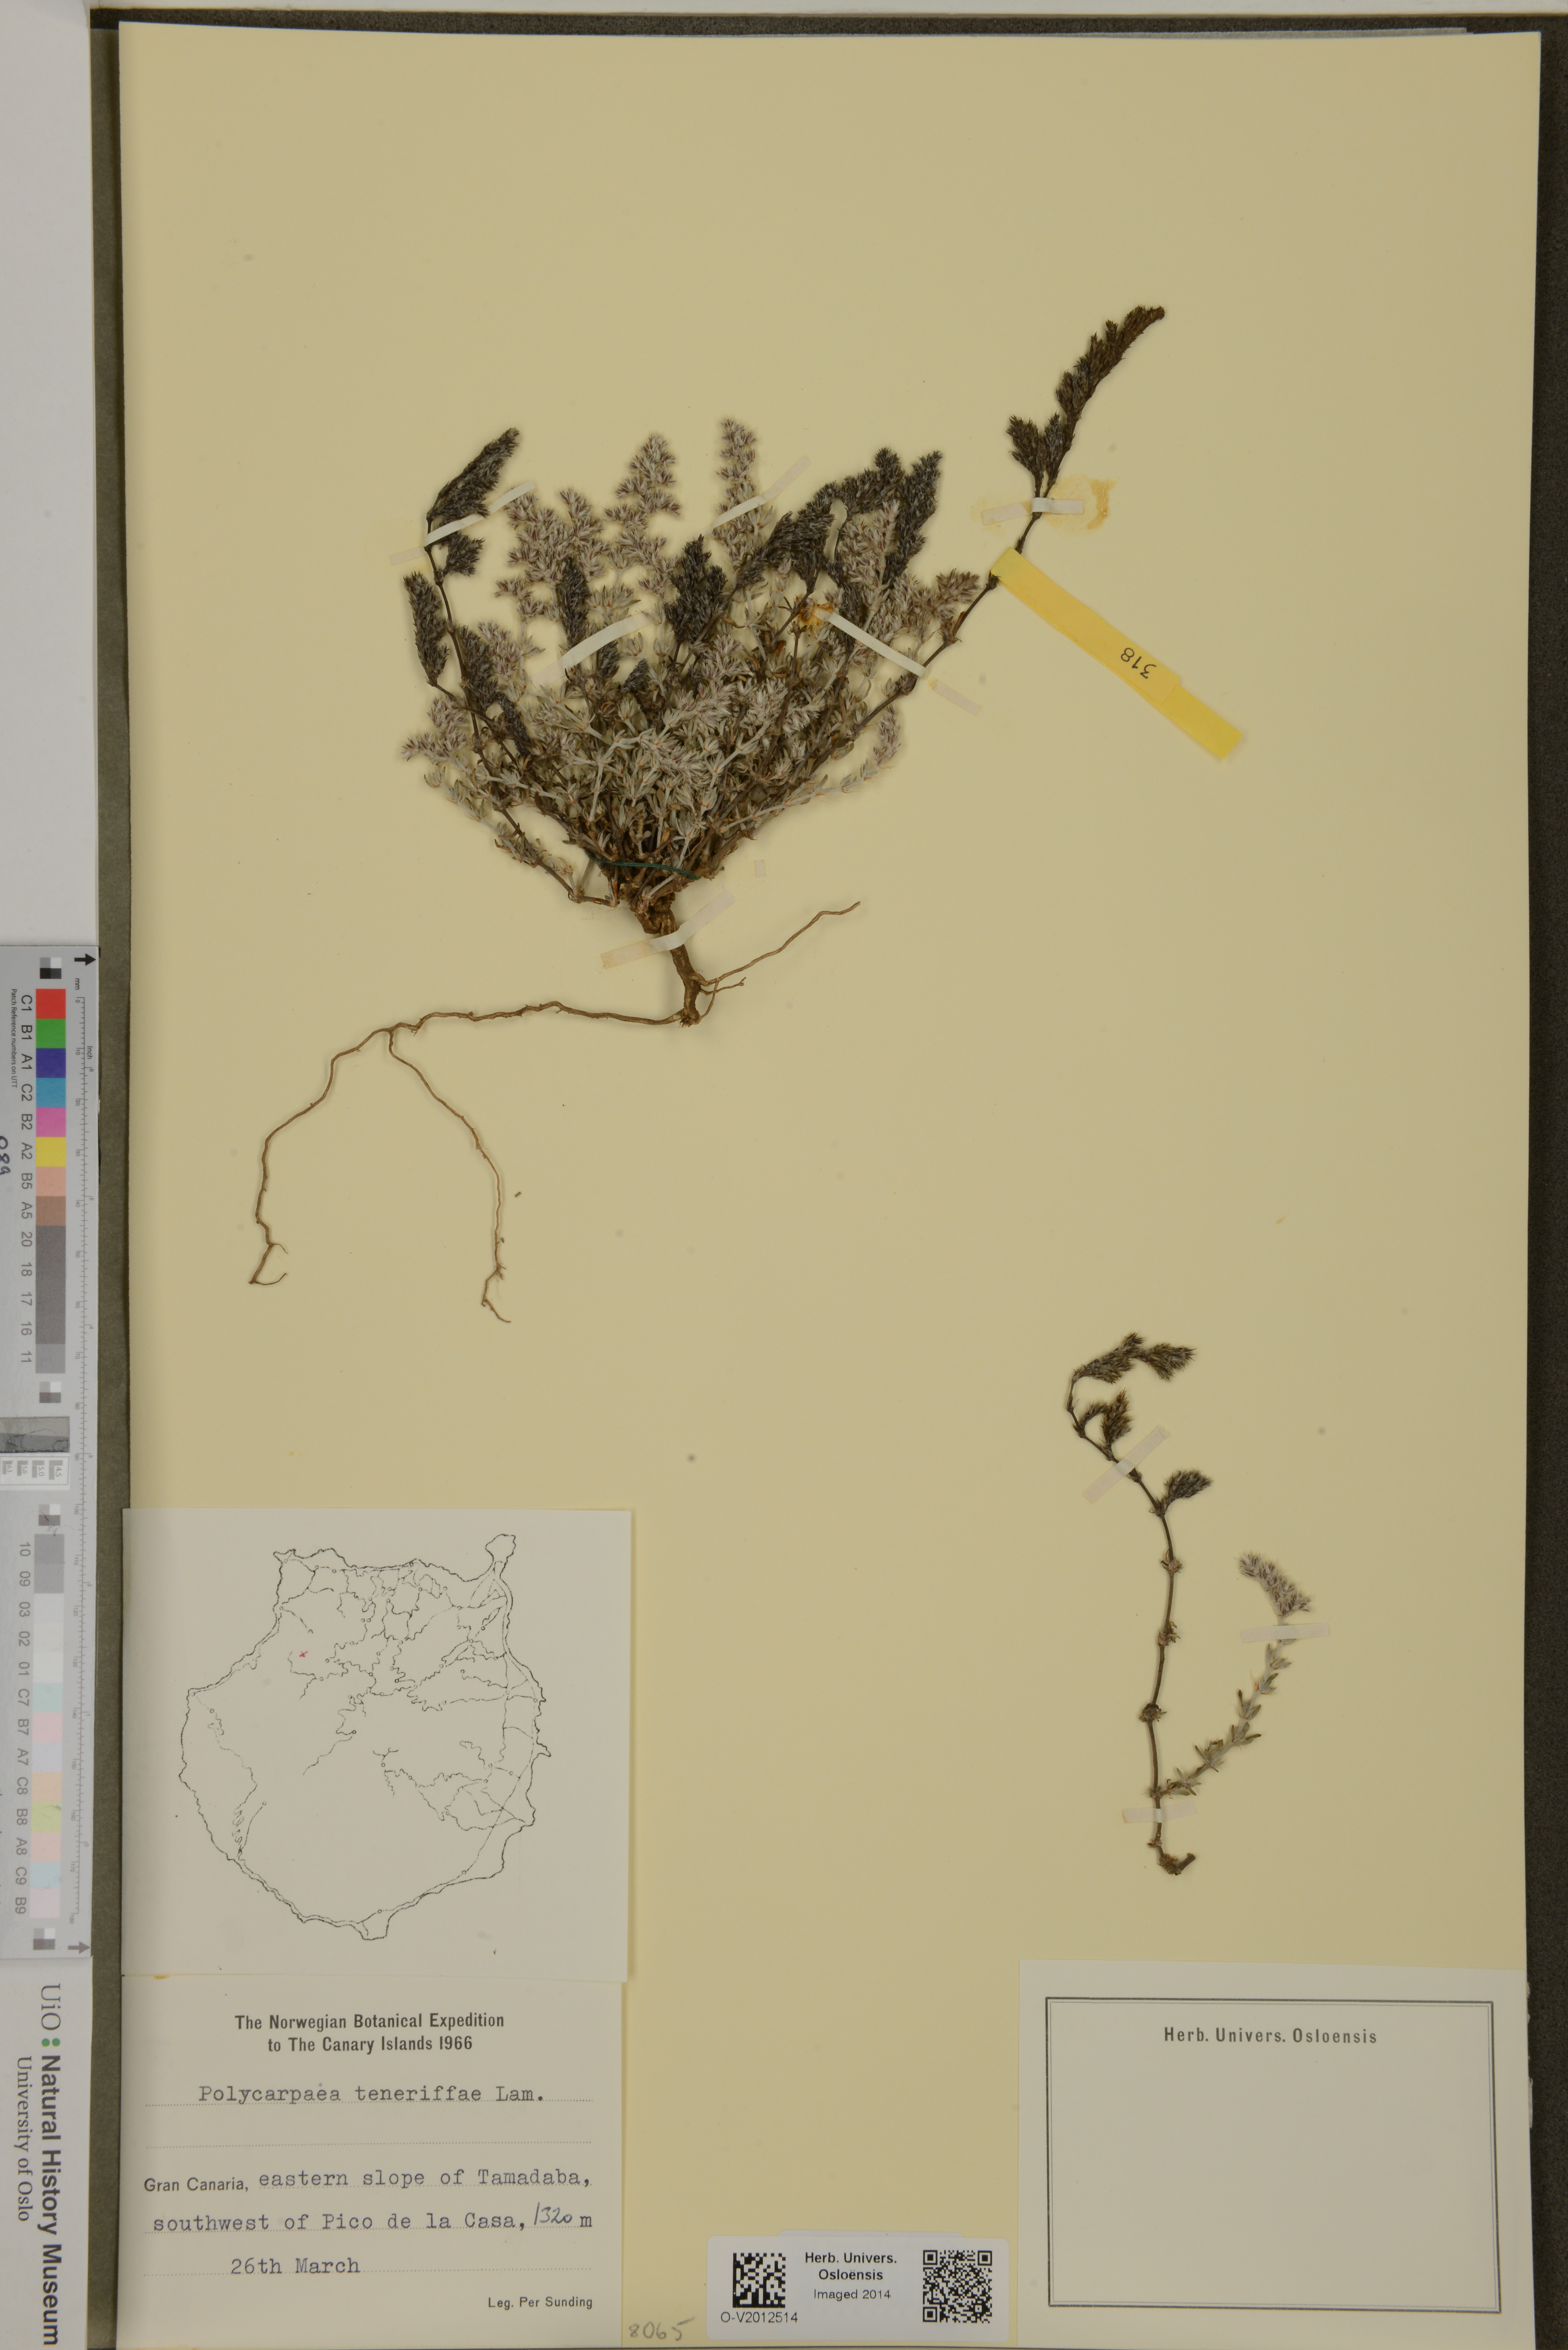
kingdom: Plantae
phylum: Tracheophyta
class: Magnoliopsida
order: Caryophyllales
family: Caryophyllaceae
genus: Polycarpaea
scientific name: Polycarpaea divaricata
